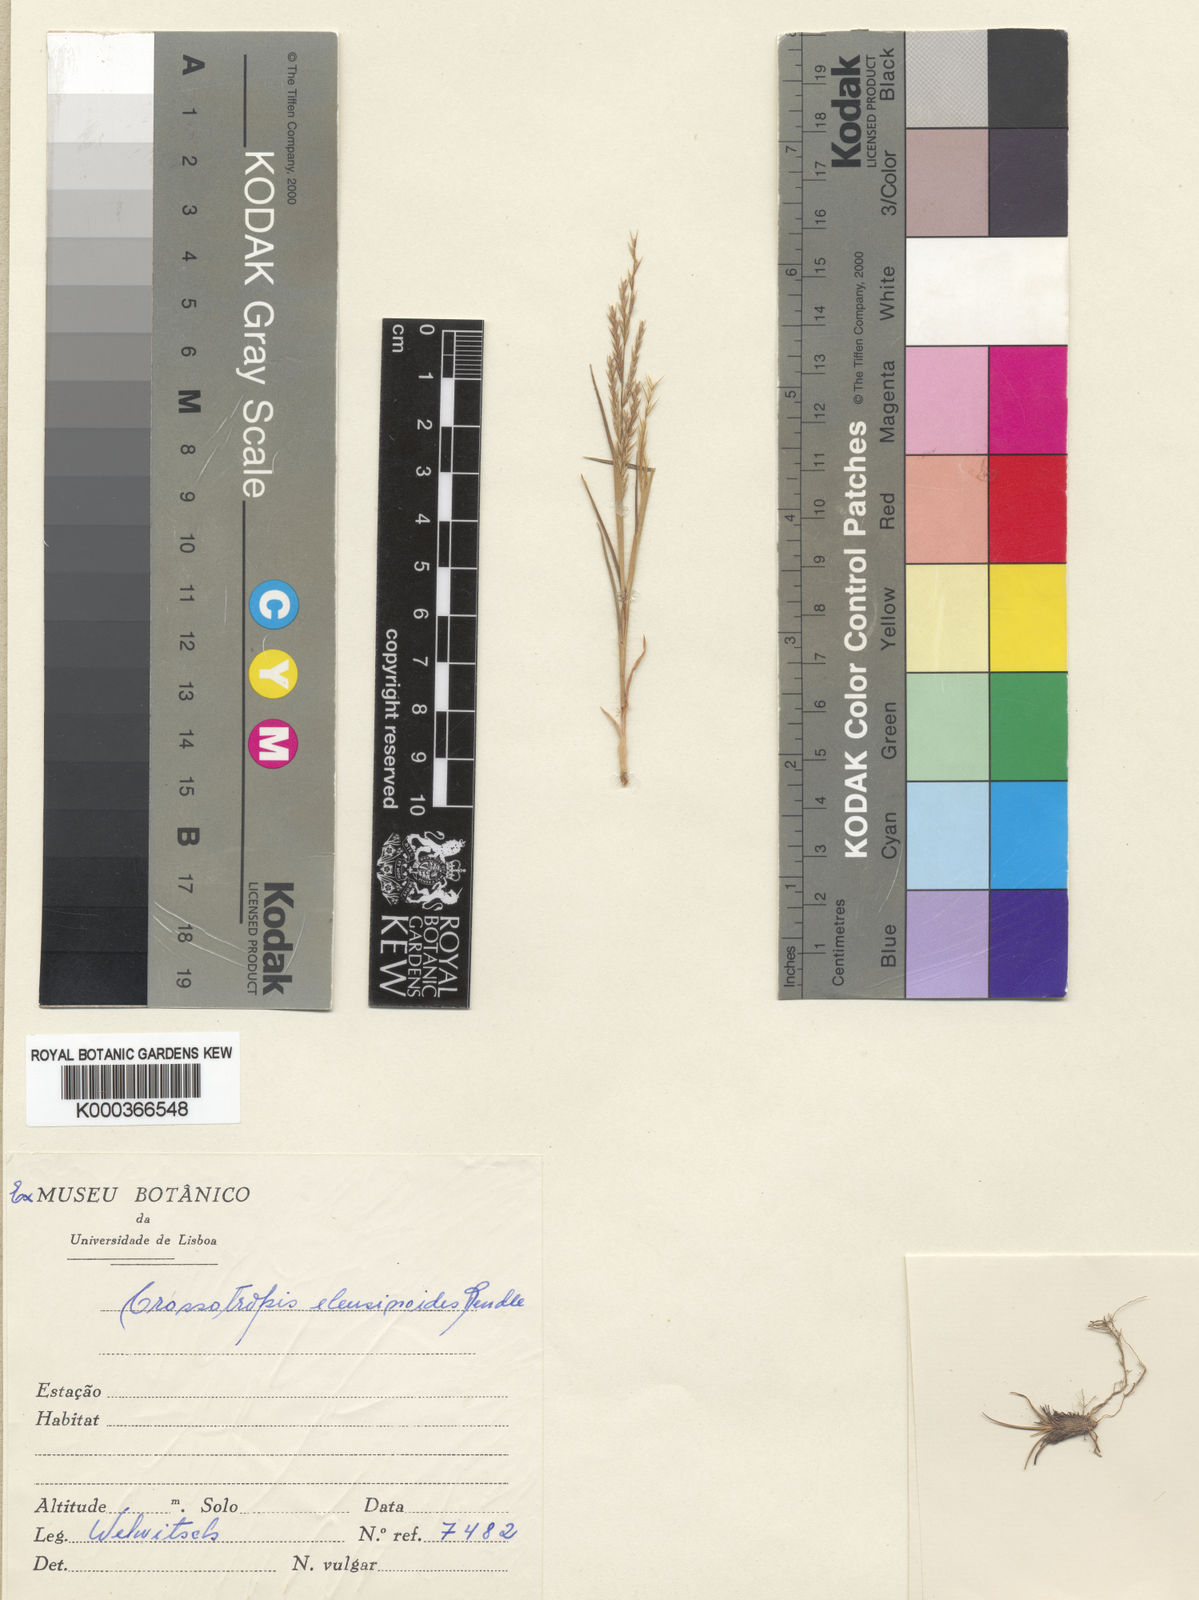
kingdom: Plantae
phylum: Tracheophyta
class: Liliopsida
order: Poales
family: Poaceae
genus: Trichoneura
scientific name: Trichoneura eleusinoides
